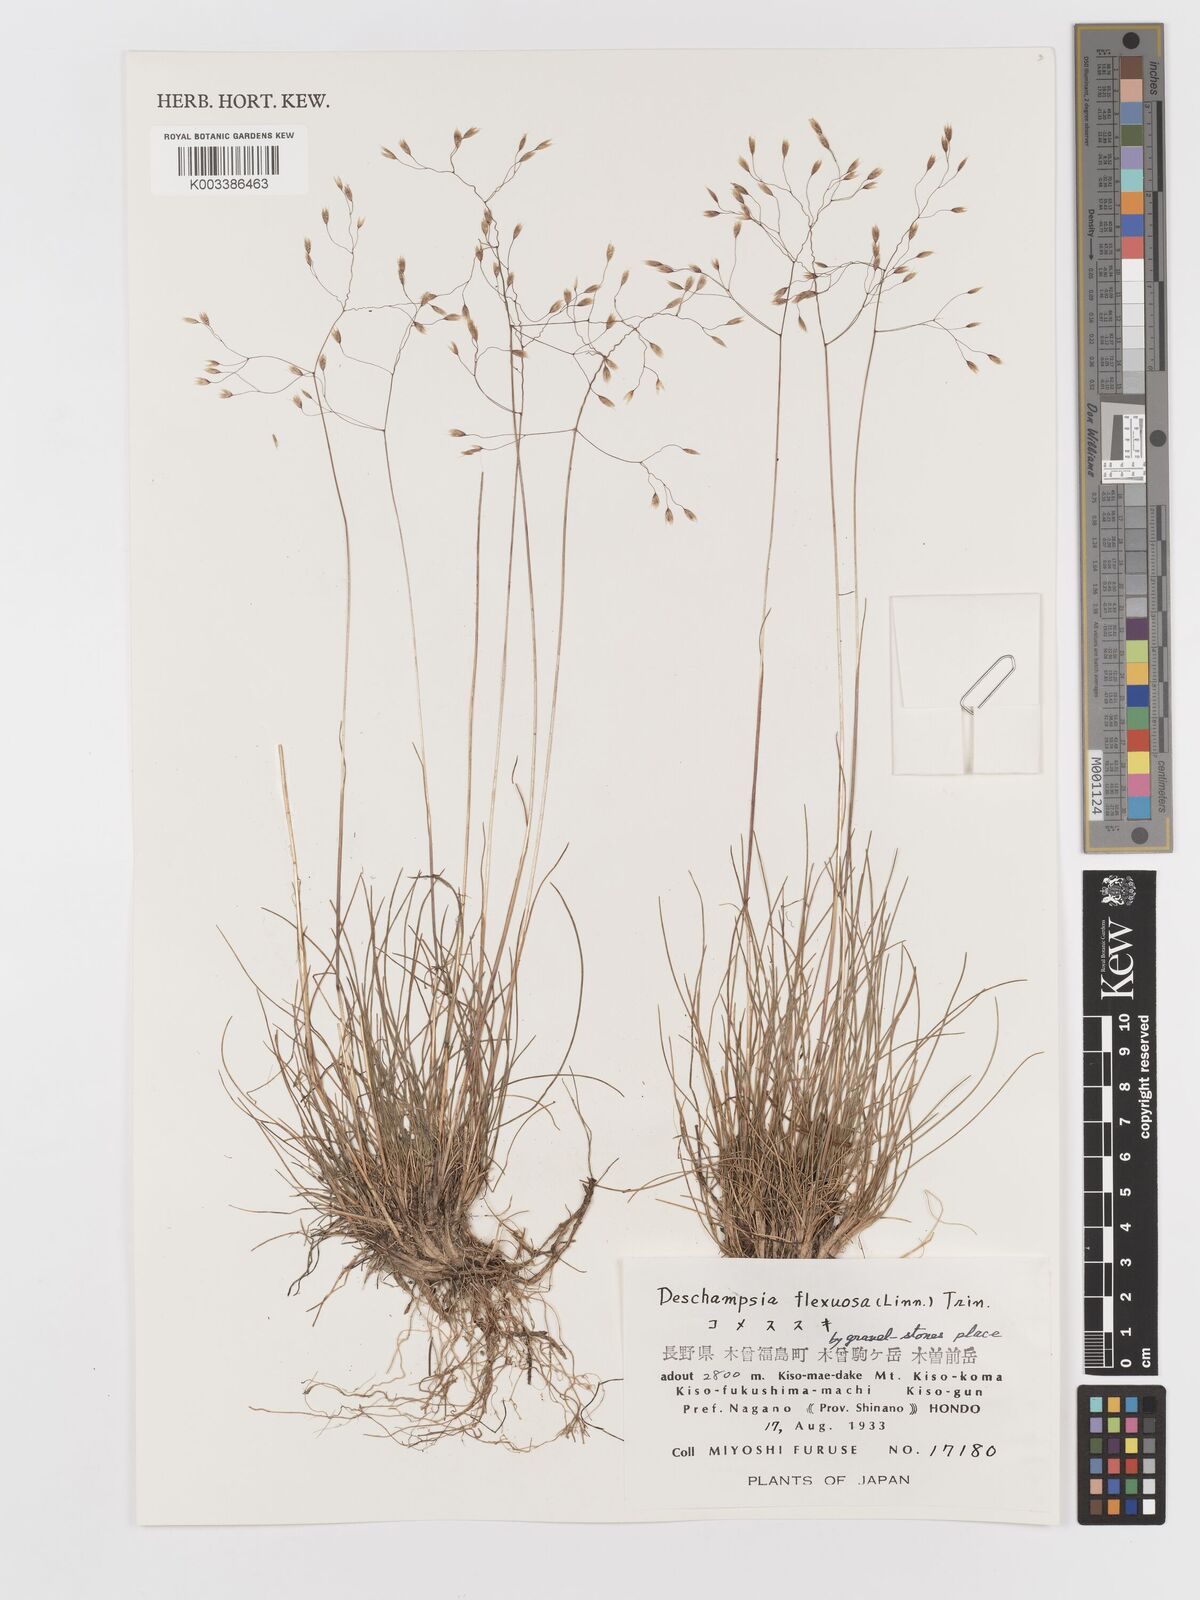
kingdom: Plantae
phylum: Tracheophyta
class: Liliopsida
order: Poales
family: Poaceae
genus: Avenella
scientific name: Avenella flexuosa
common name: Wavy hairgrass
